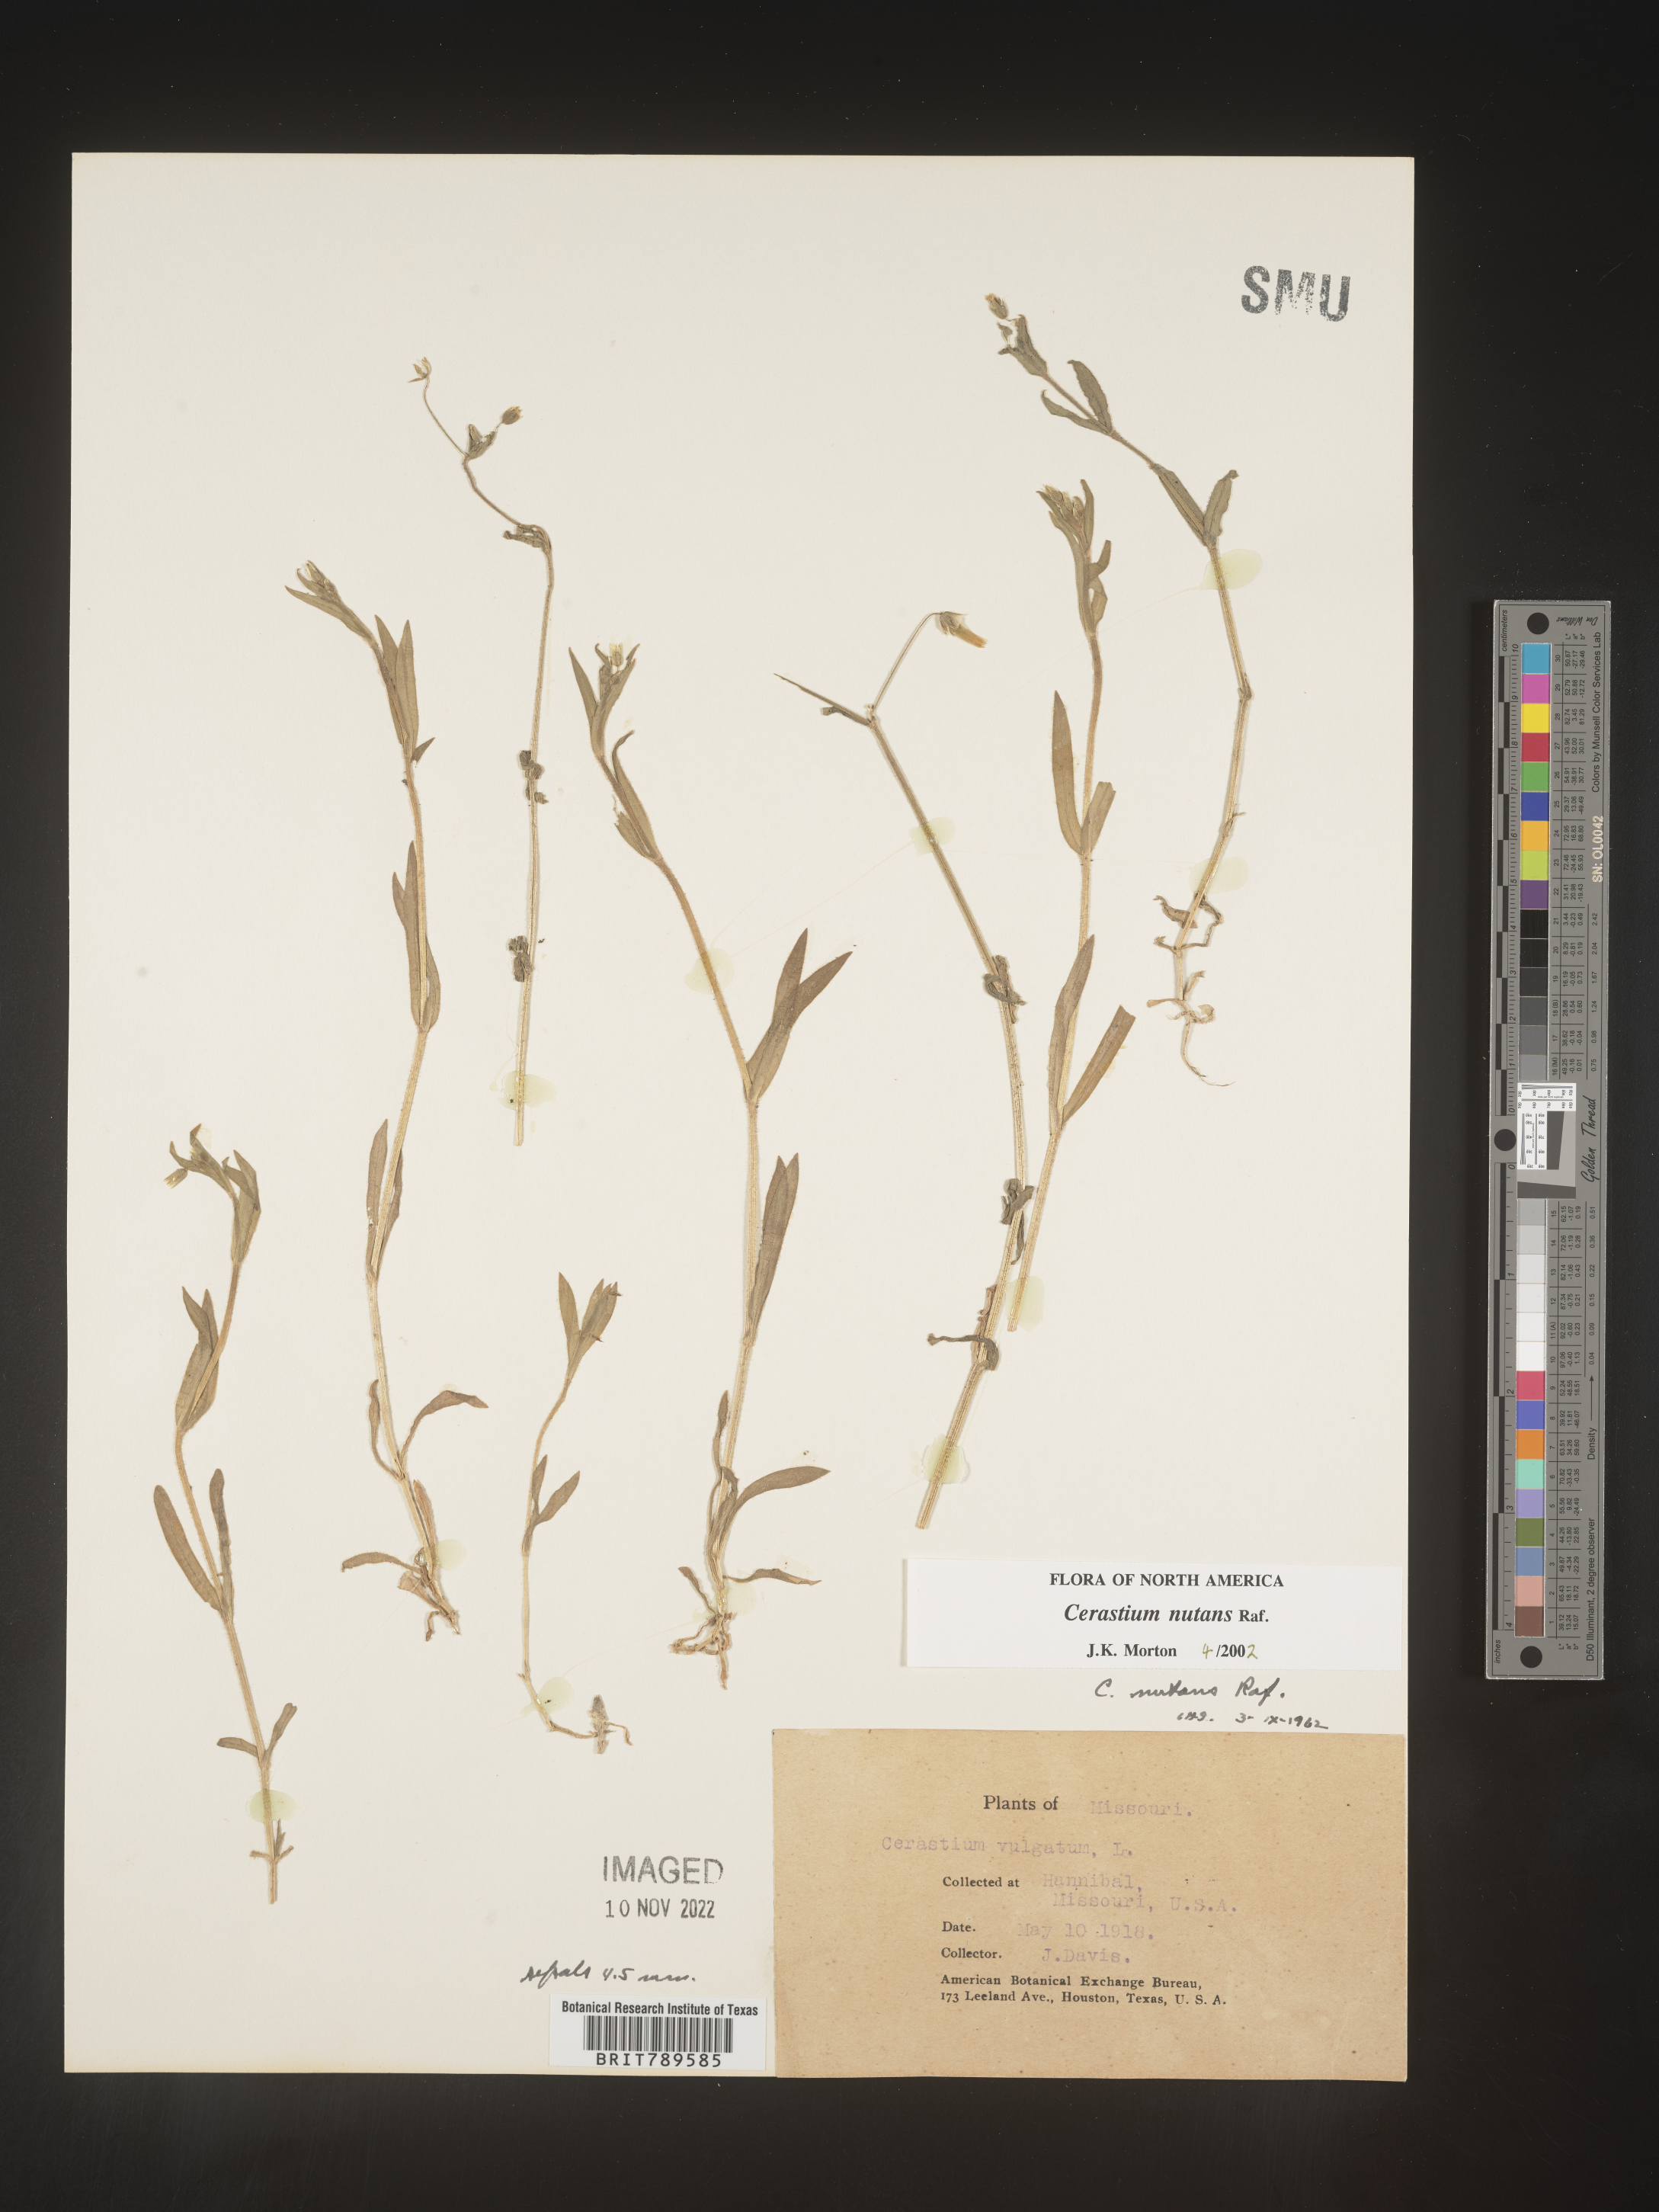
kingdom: Plantae
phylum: Tracheophyta
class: Magnoliopsida
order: Caryophyllales
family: Caryophyllaceae
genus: Cerastium
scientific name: Cerastium nutans
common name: Long-stalked chickweed
